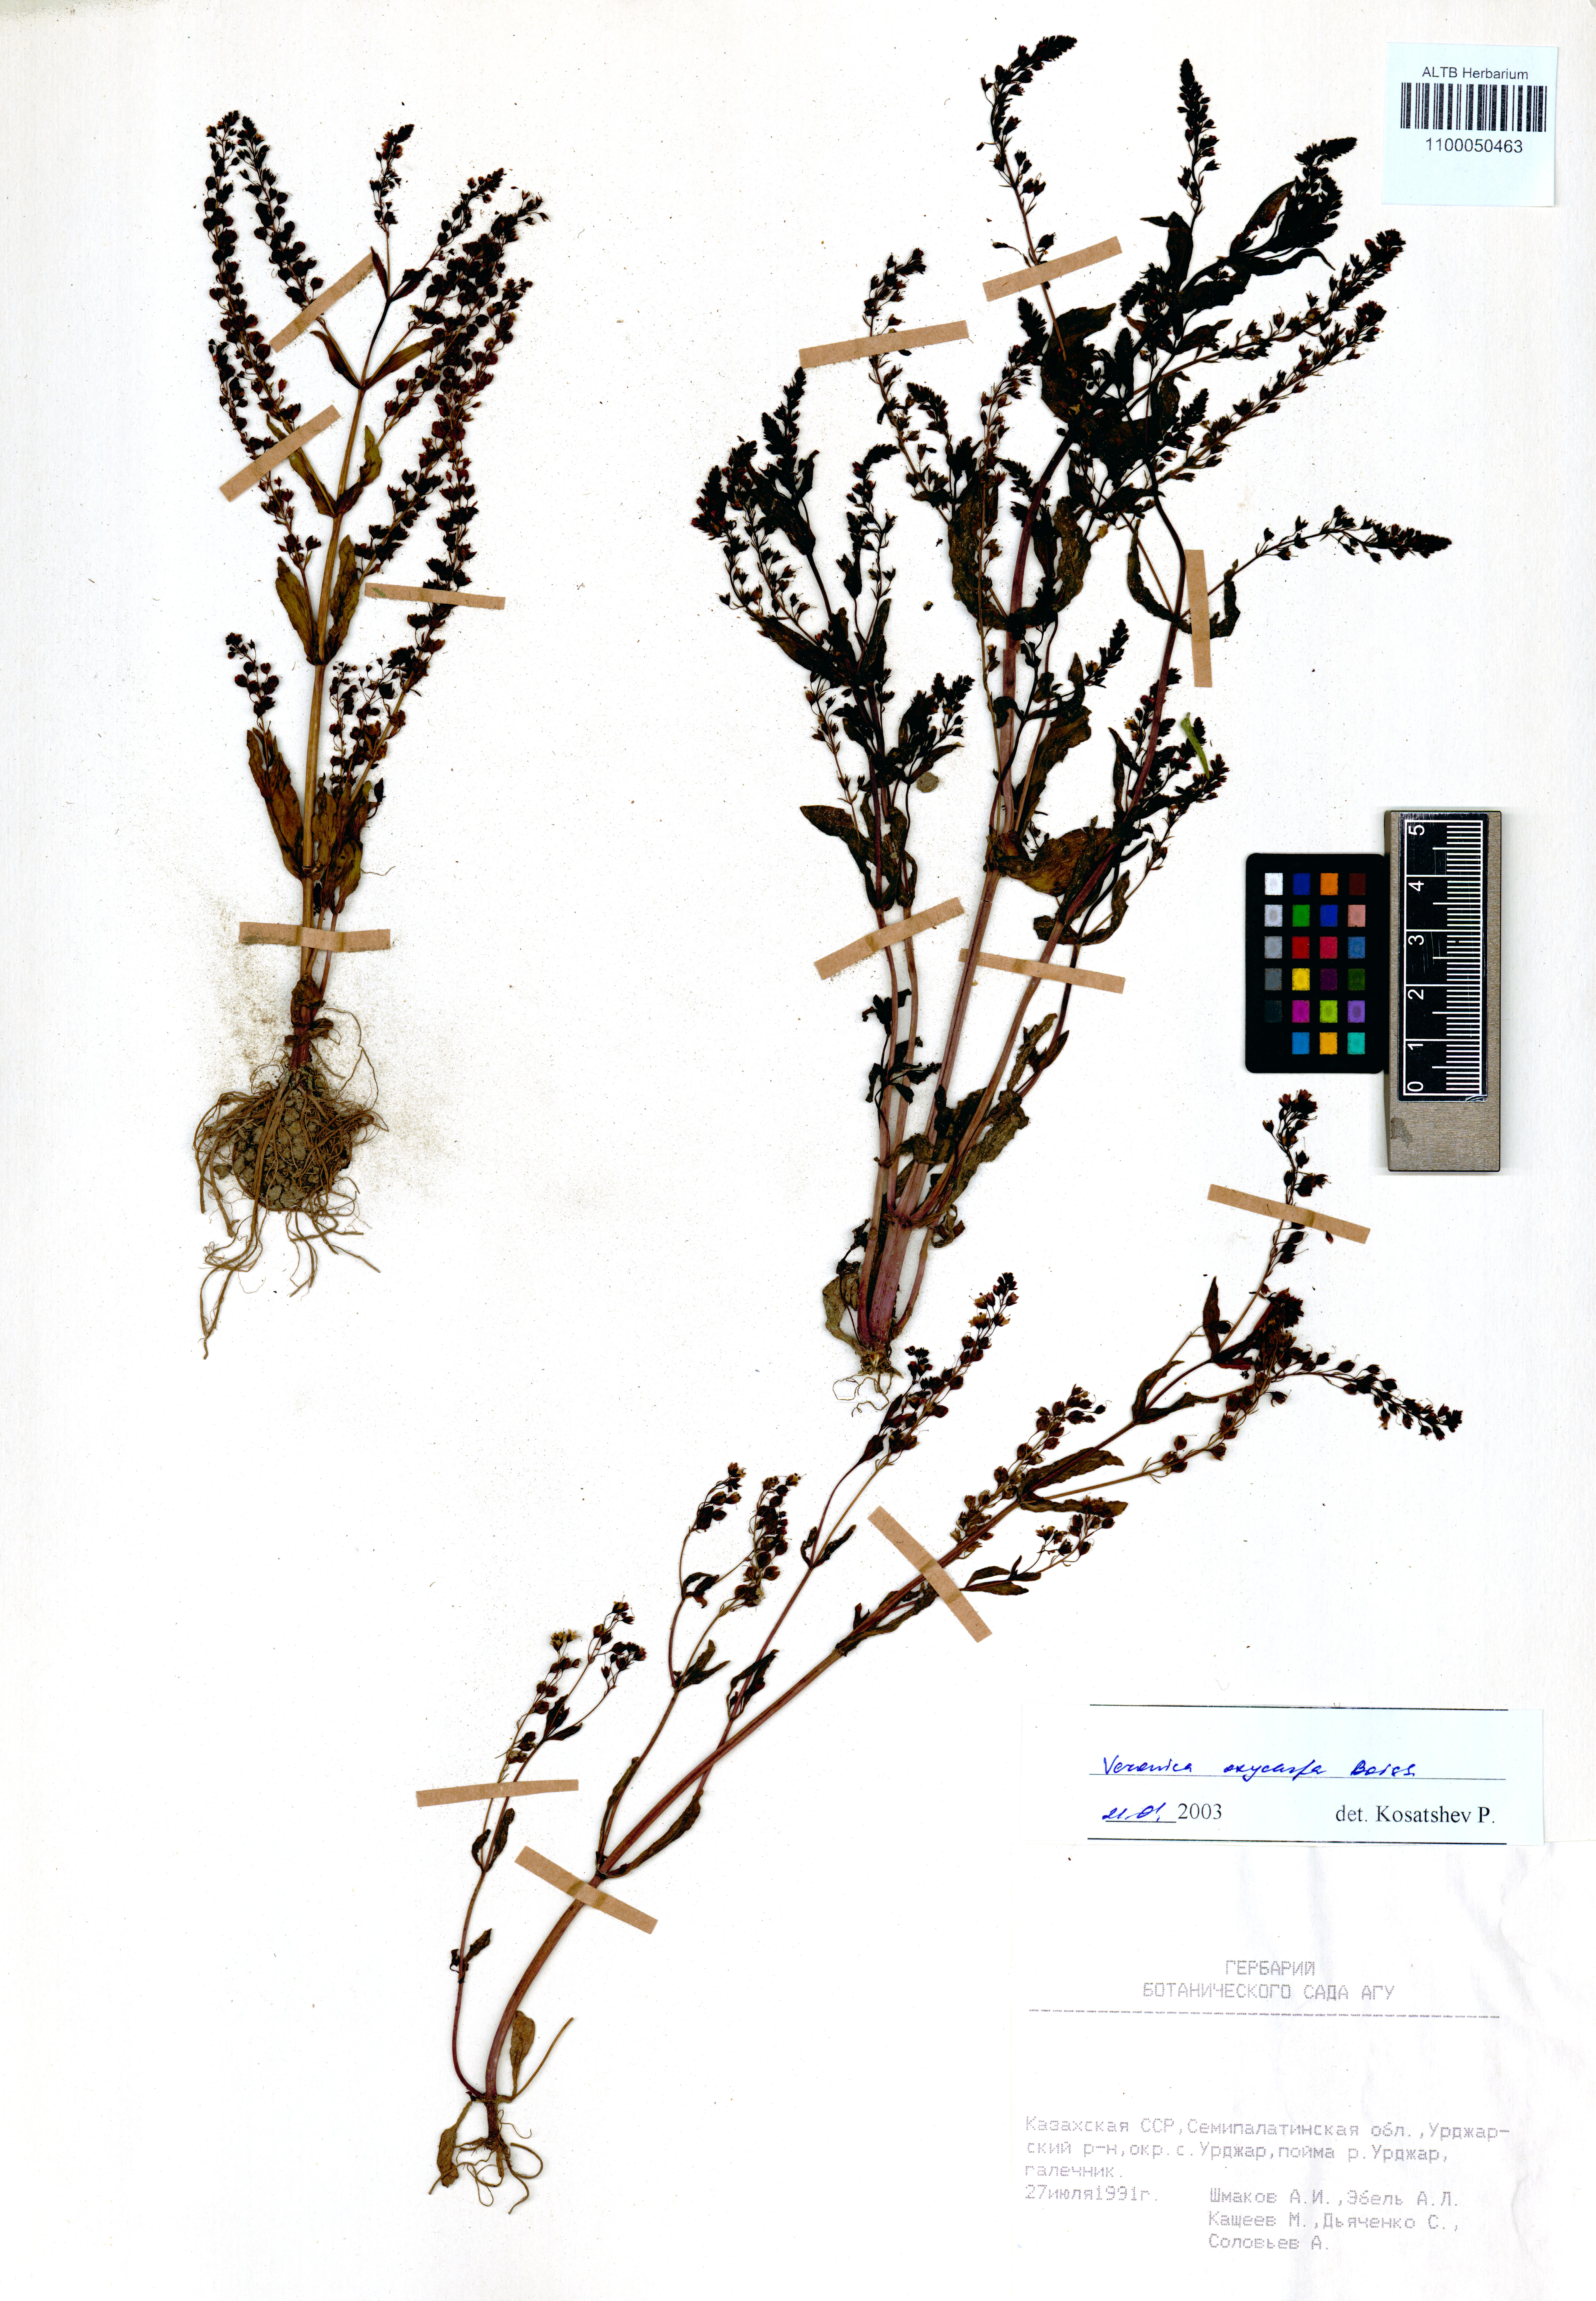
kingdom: Plantae
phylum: Tracheophyta
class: Magnoliopsida
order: Lamiales
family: Plantaginaceae
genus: Veronica
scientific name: Veronica oxycarpa
